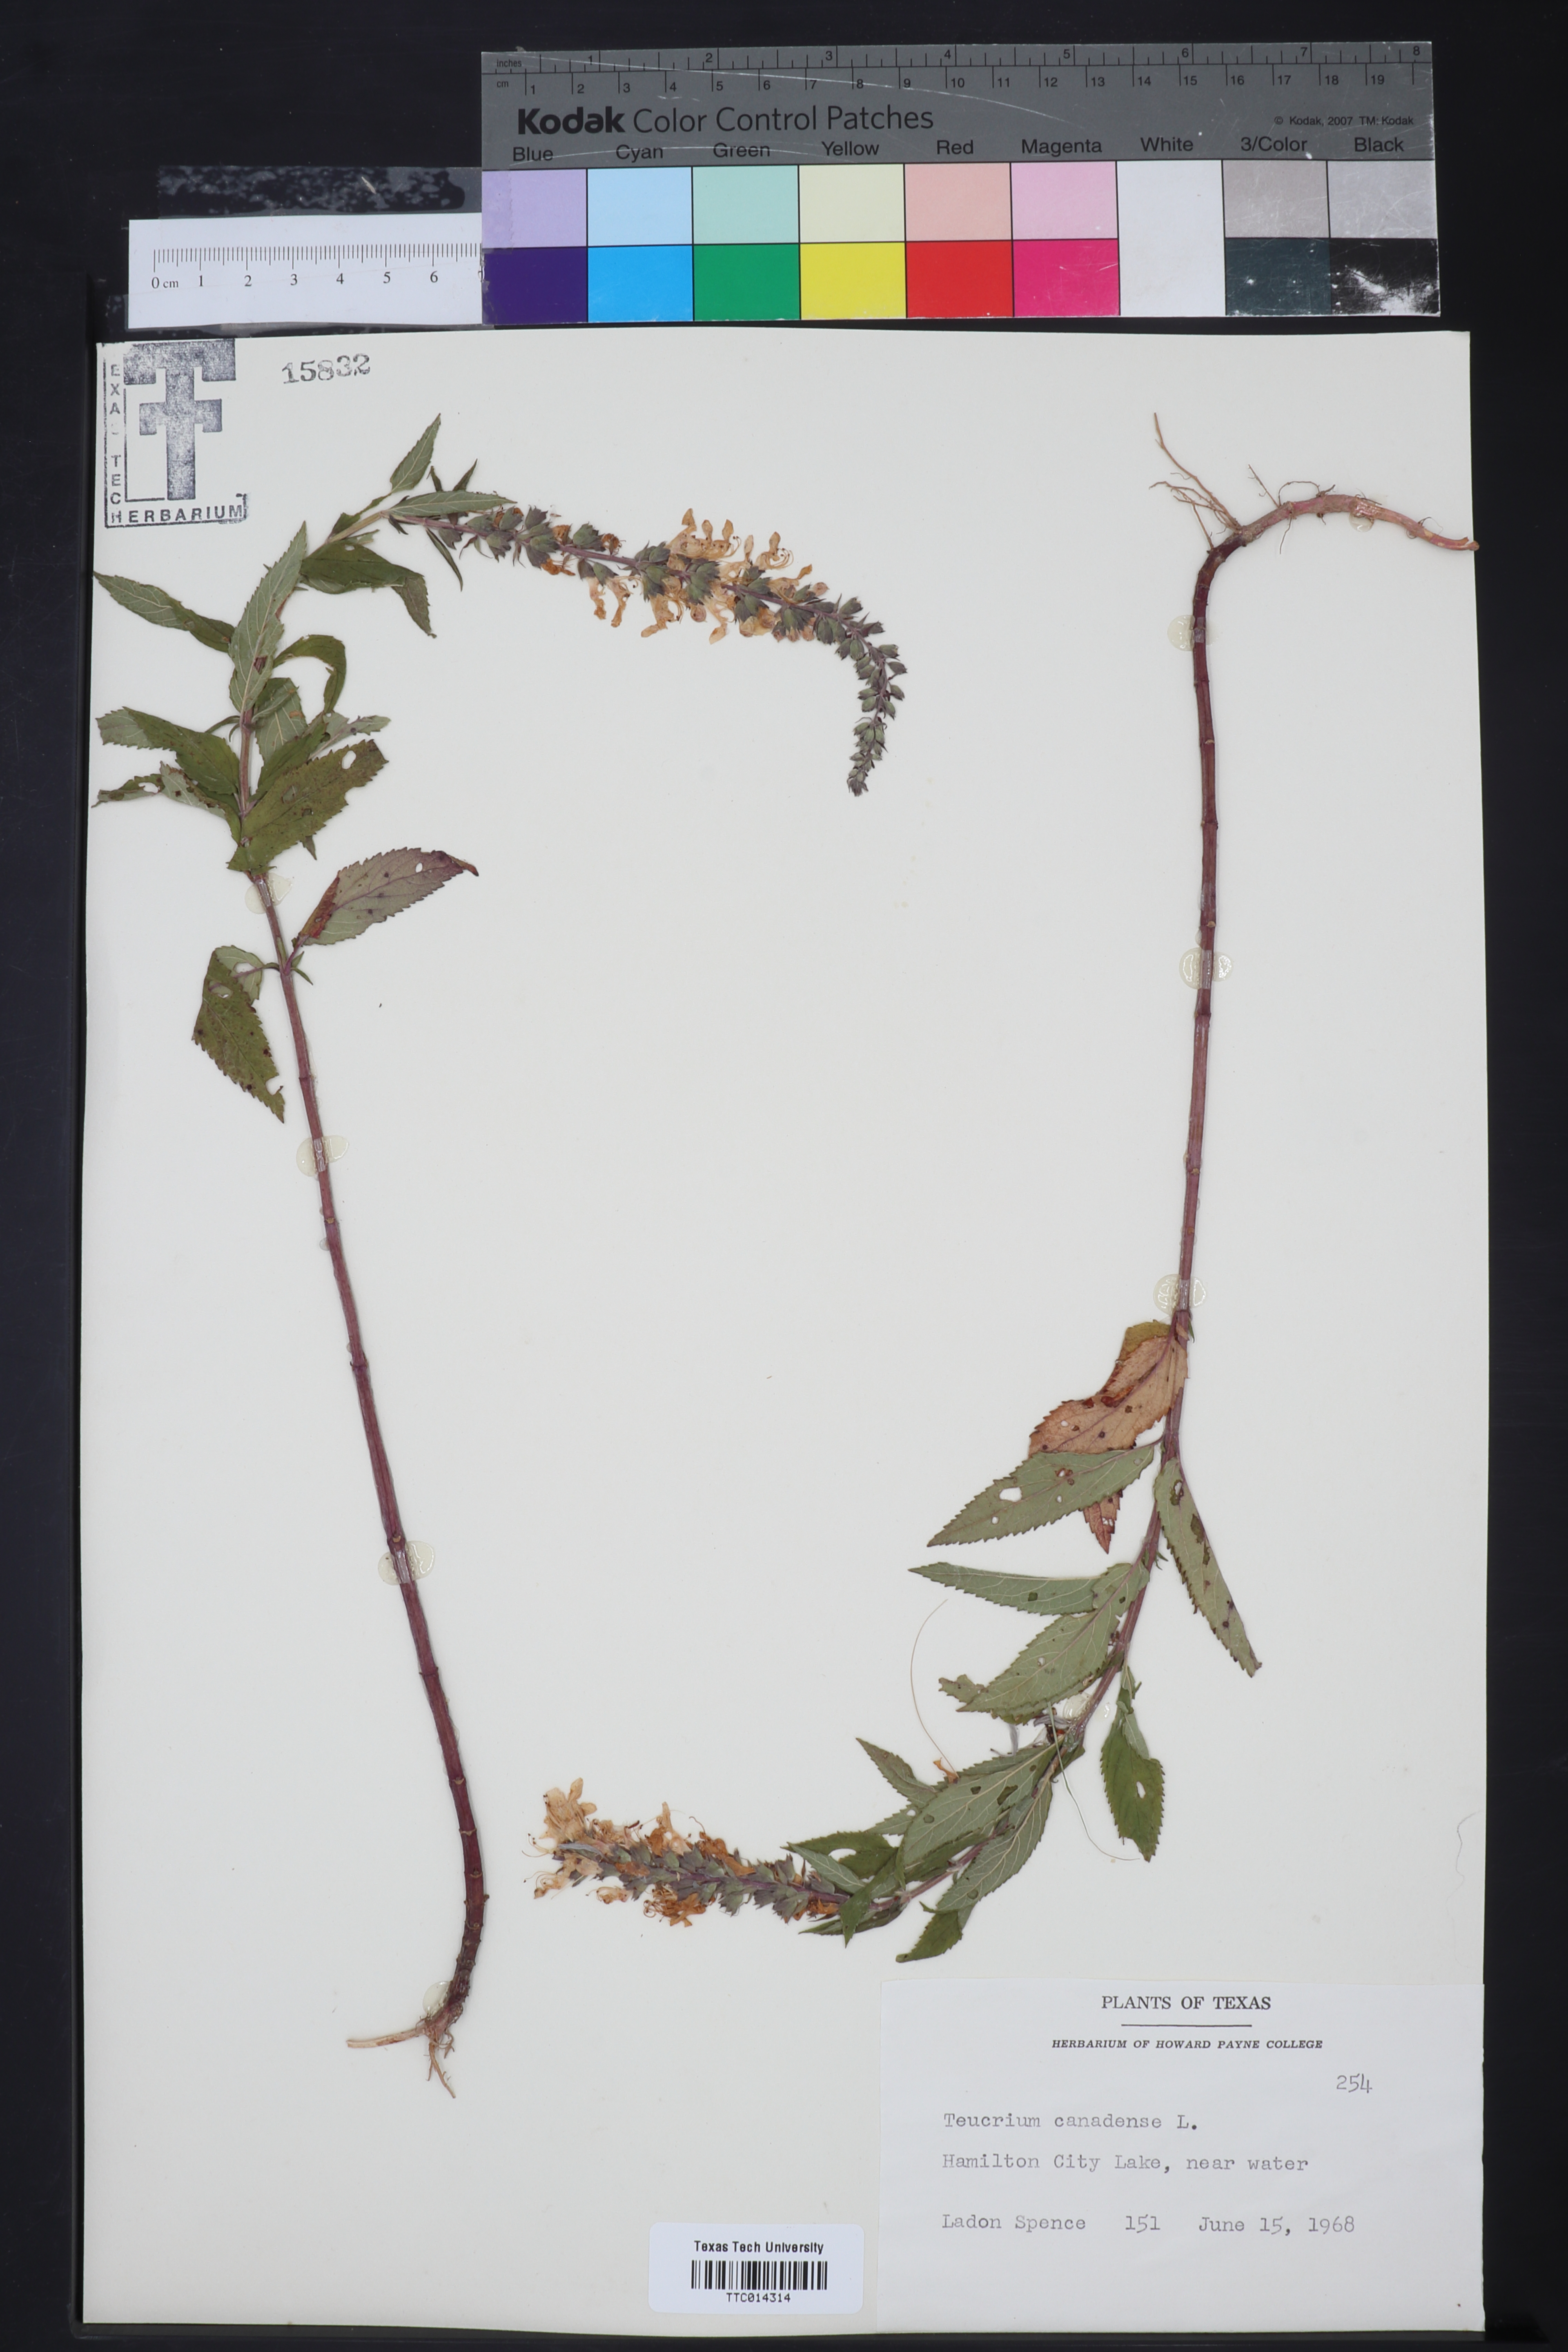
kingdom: Plantae
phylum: Tracheophyta
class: Magnoliopsida
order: Lamiales
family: Lamiaceae
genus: Teucrium
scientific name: Teucrium canadense
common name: American germander
